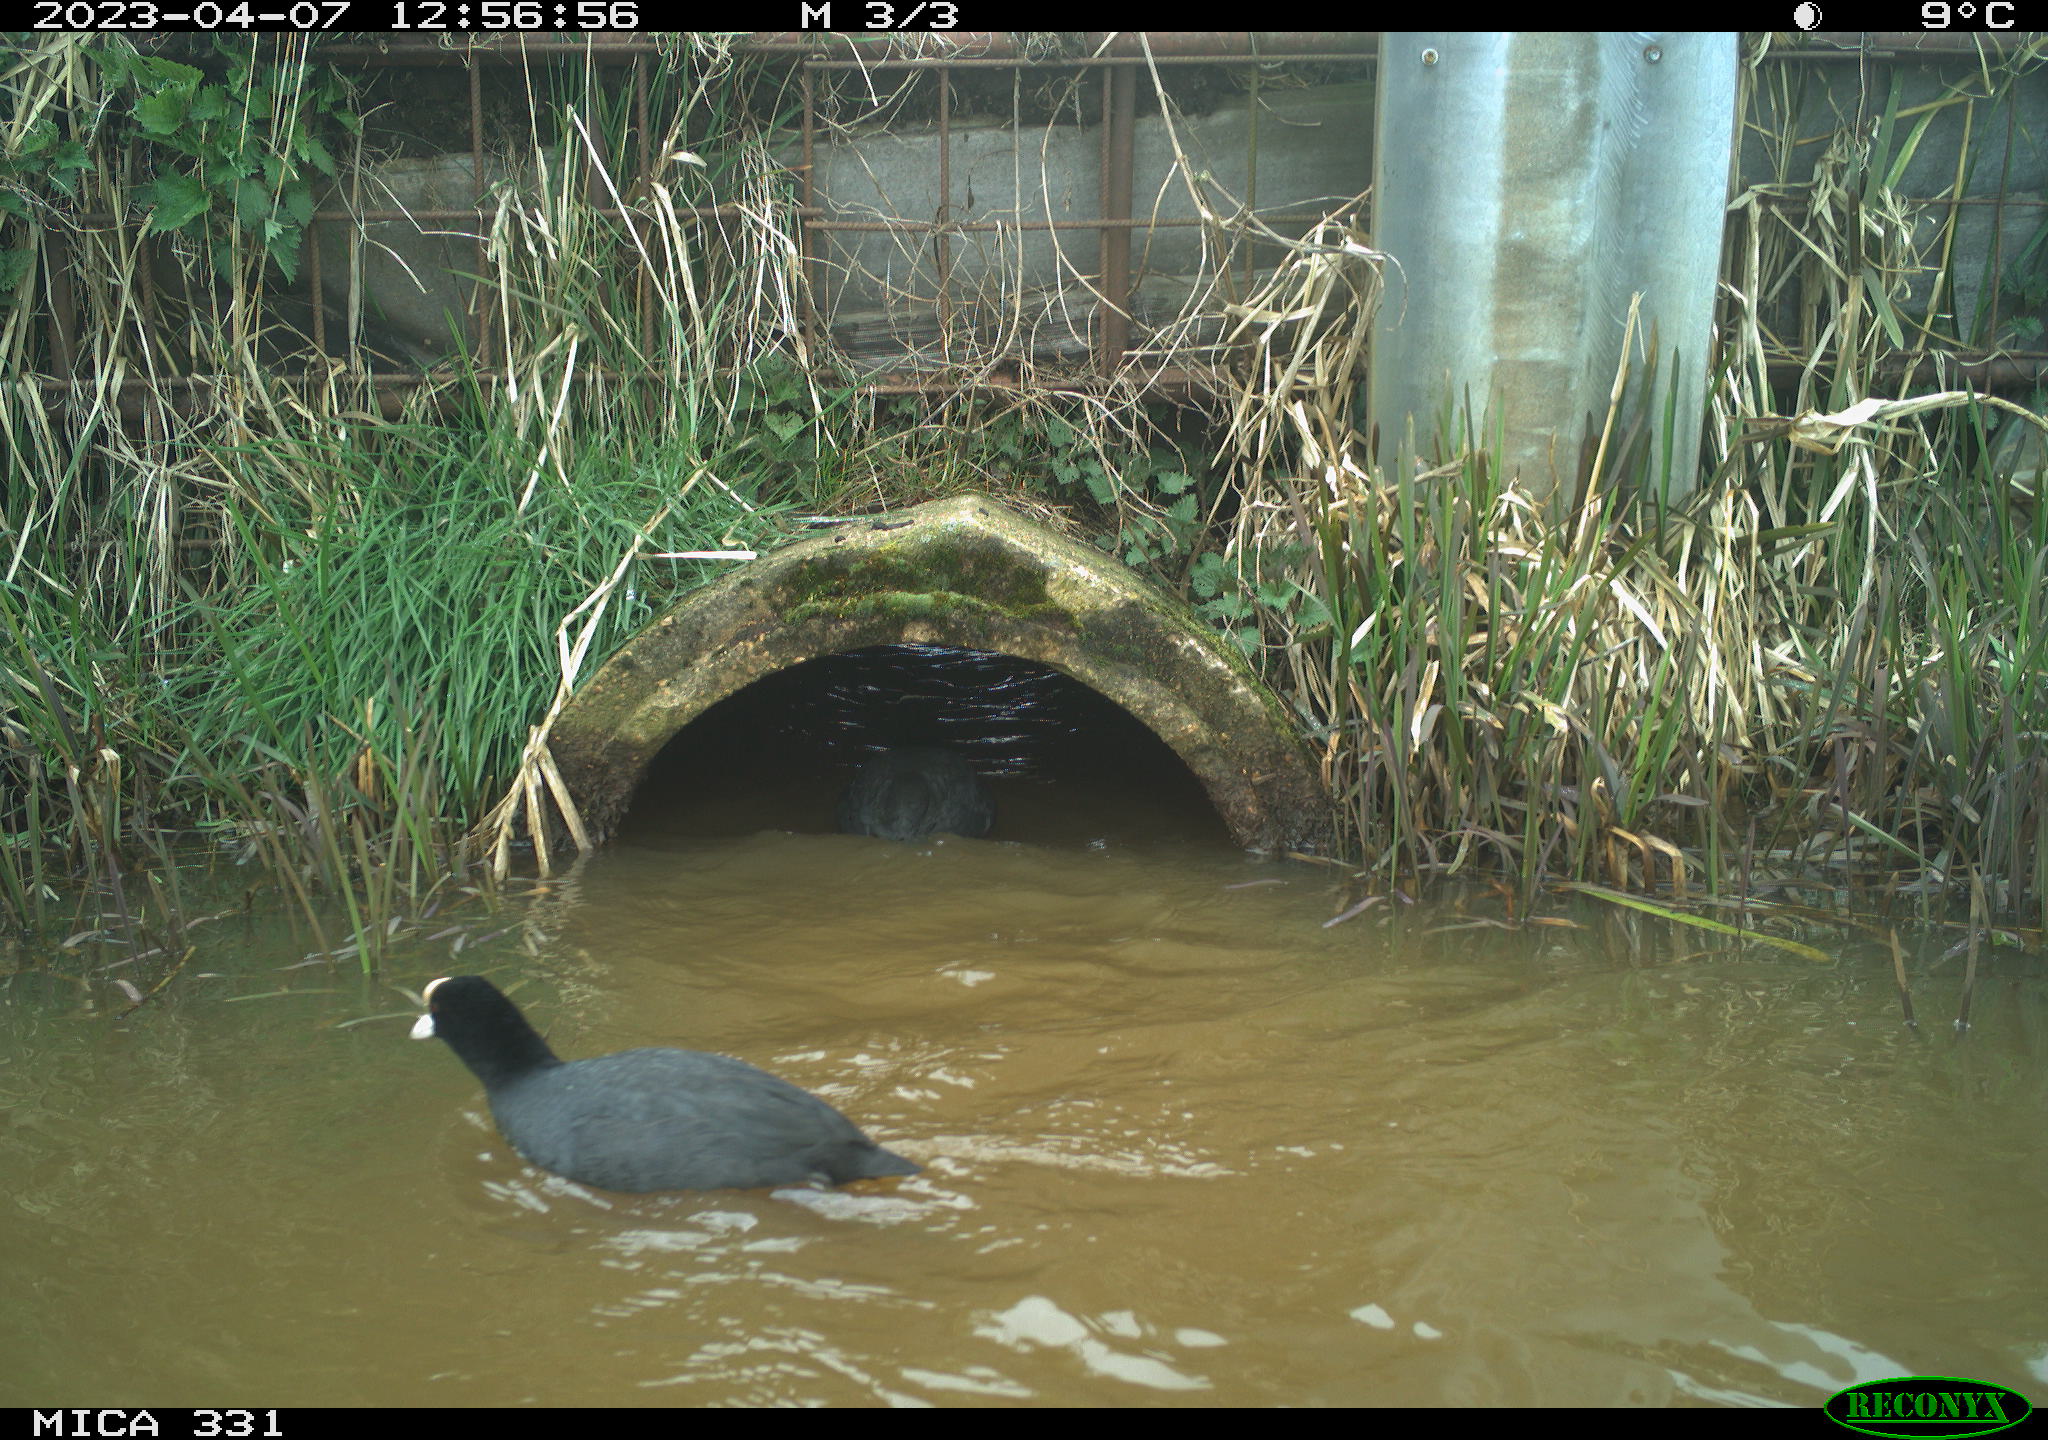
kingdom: Animalia
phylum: Chordata
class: Aves
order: Gruiformes
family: Rallidae
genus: Fulica
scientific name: Fulica atra
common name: Eurasian coot
